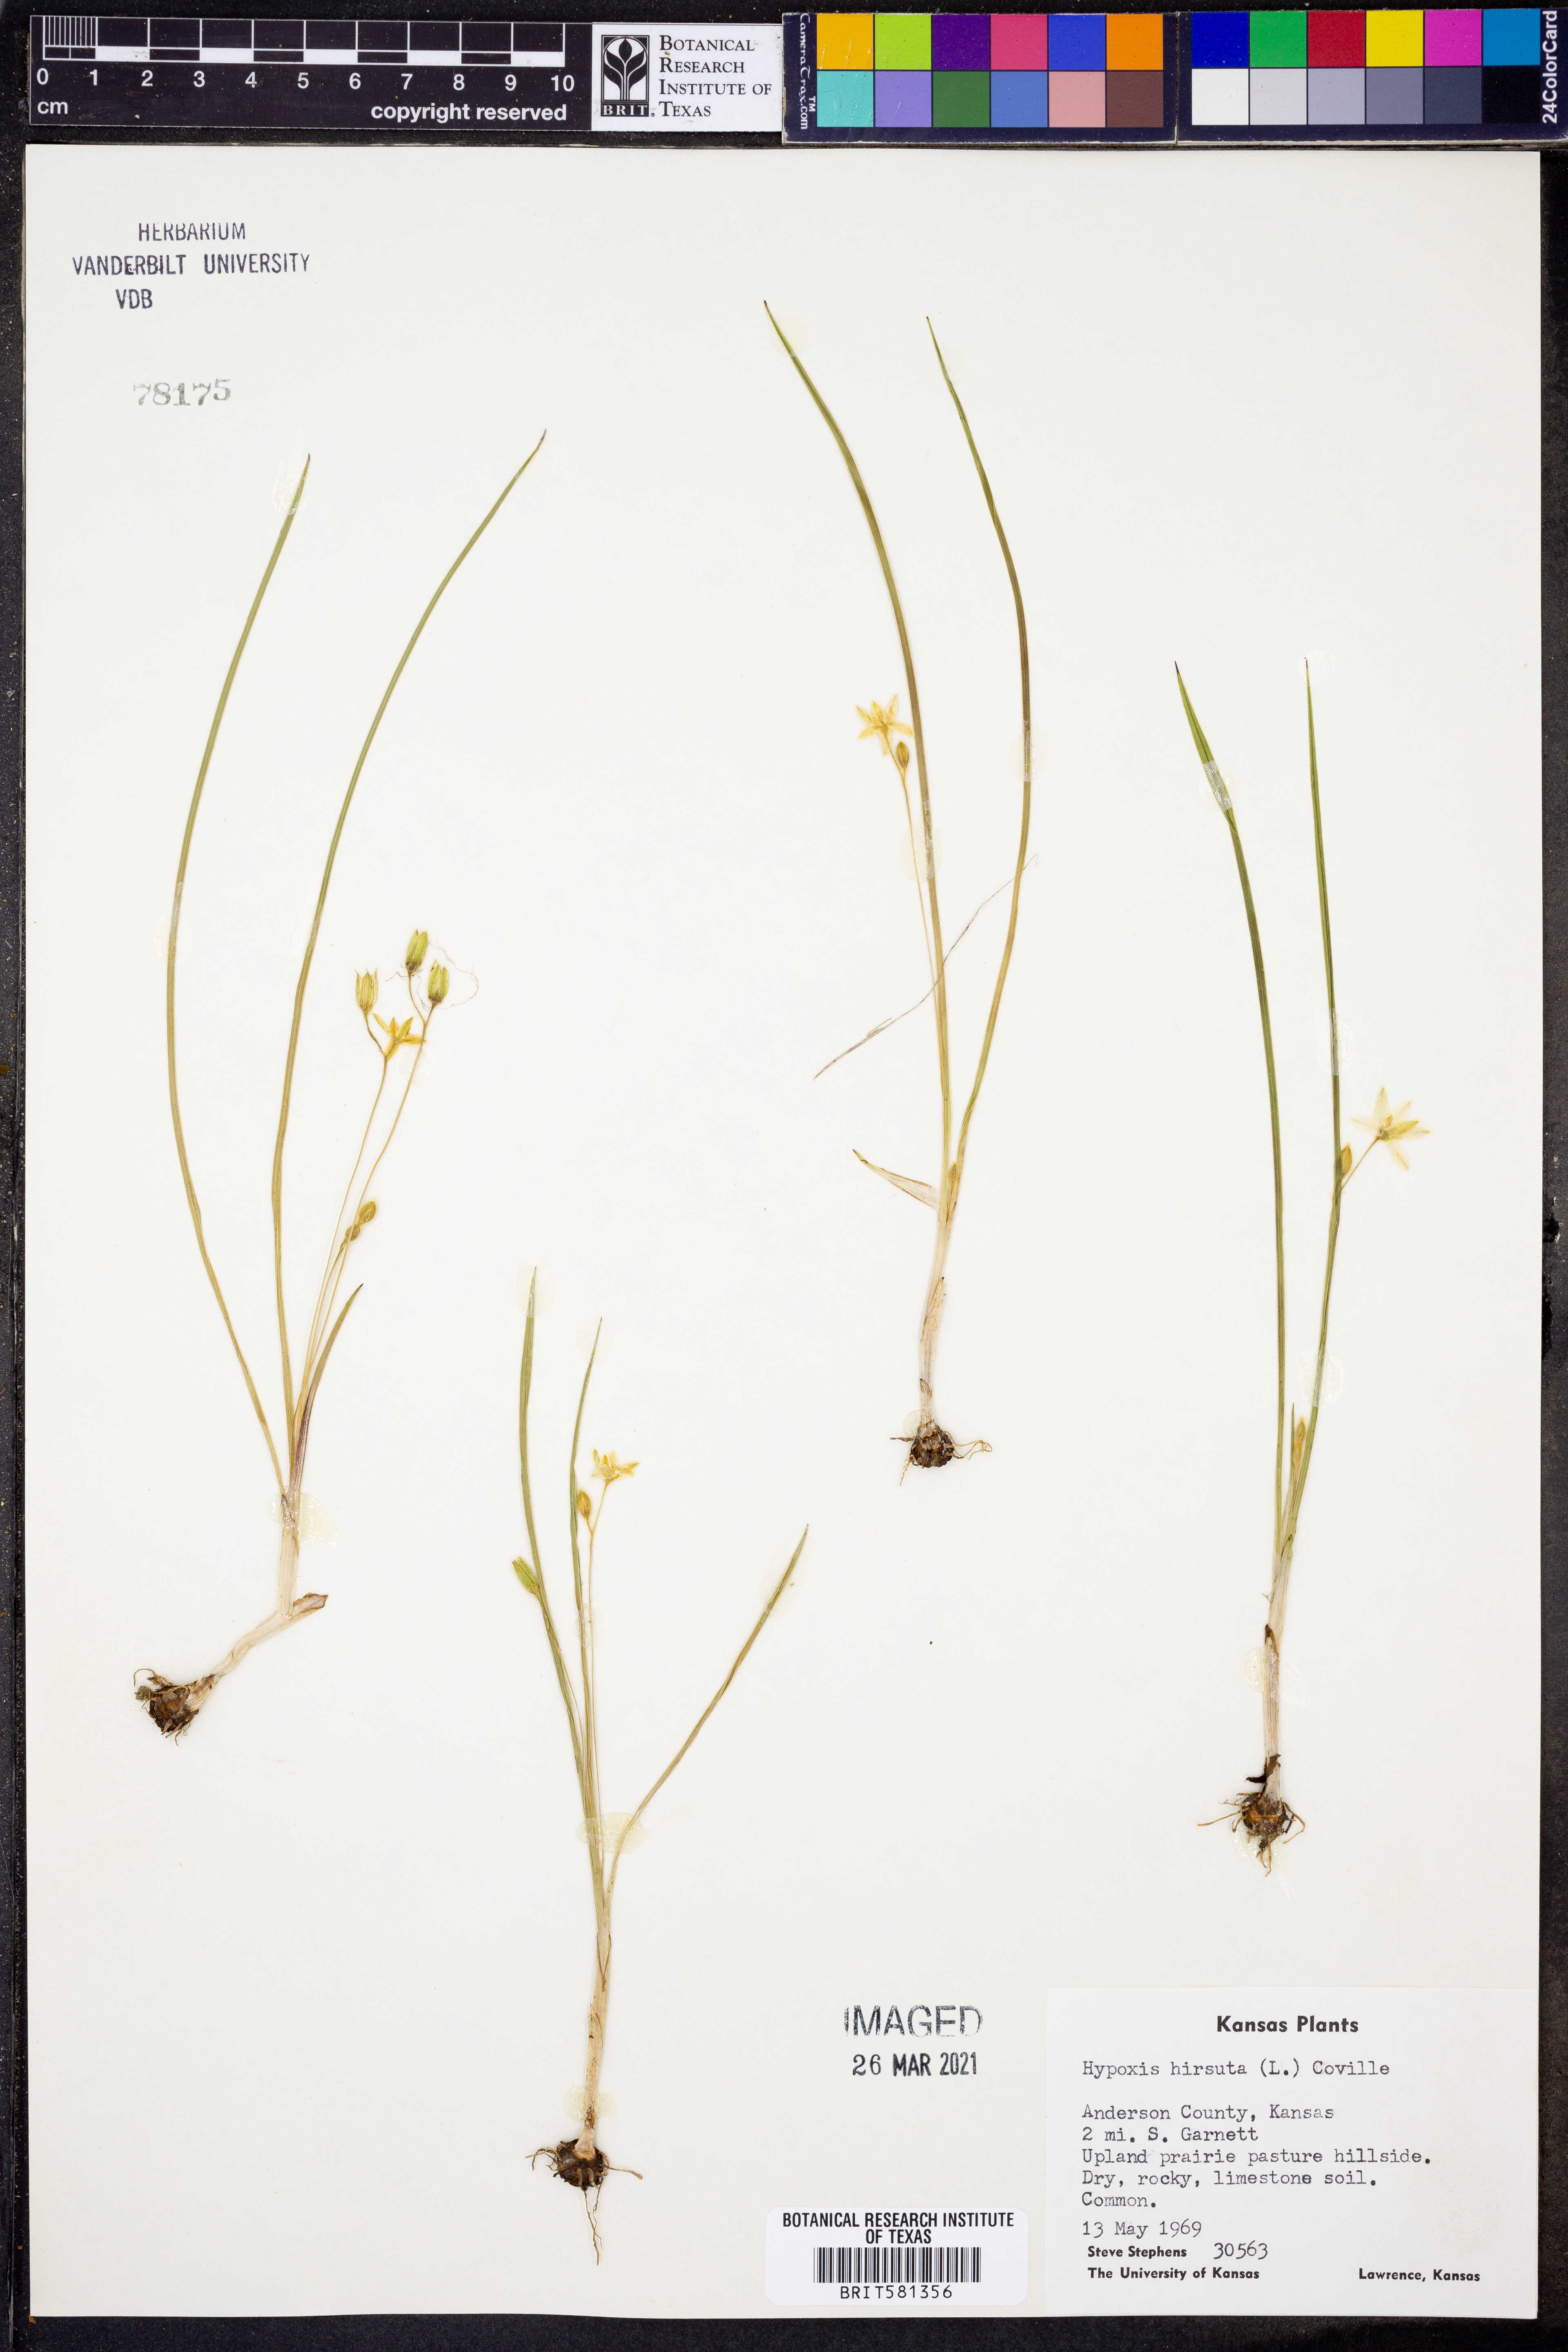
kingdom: Plantae
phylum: Tracheophyta
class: Liliopsida
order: Asparagales
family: Hypoxidaceae
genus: Hypoxis
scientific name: Hypoxis hirsuta
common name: Common goldstar
